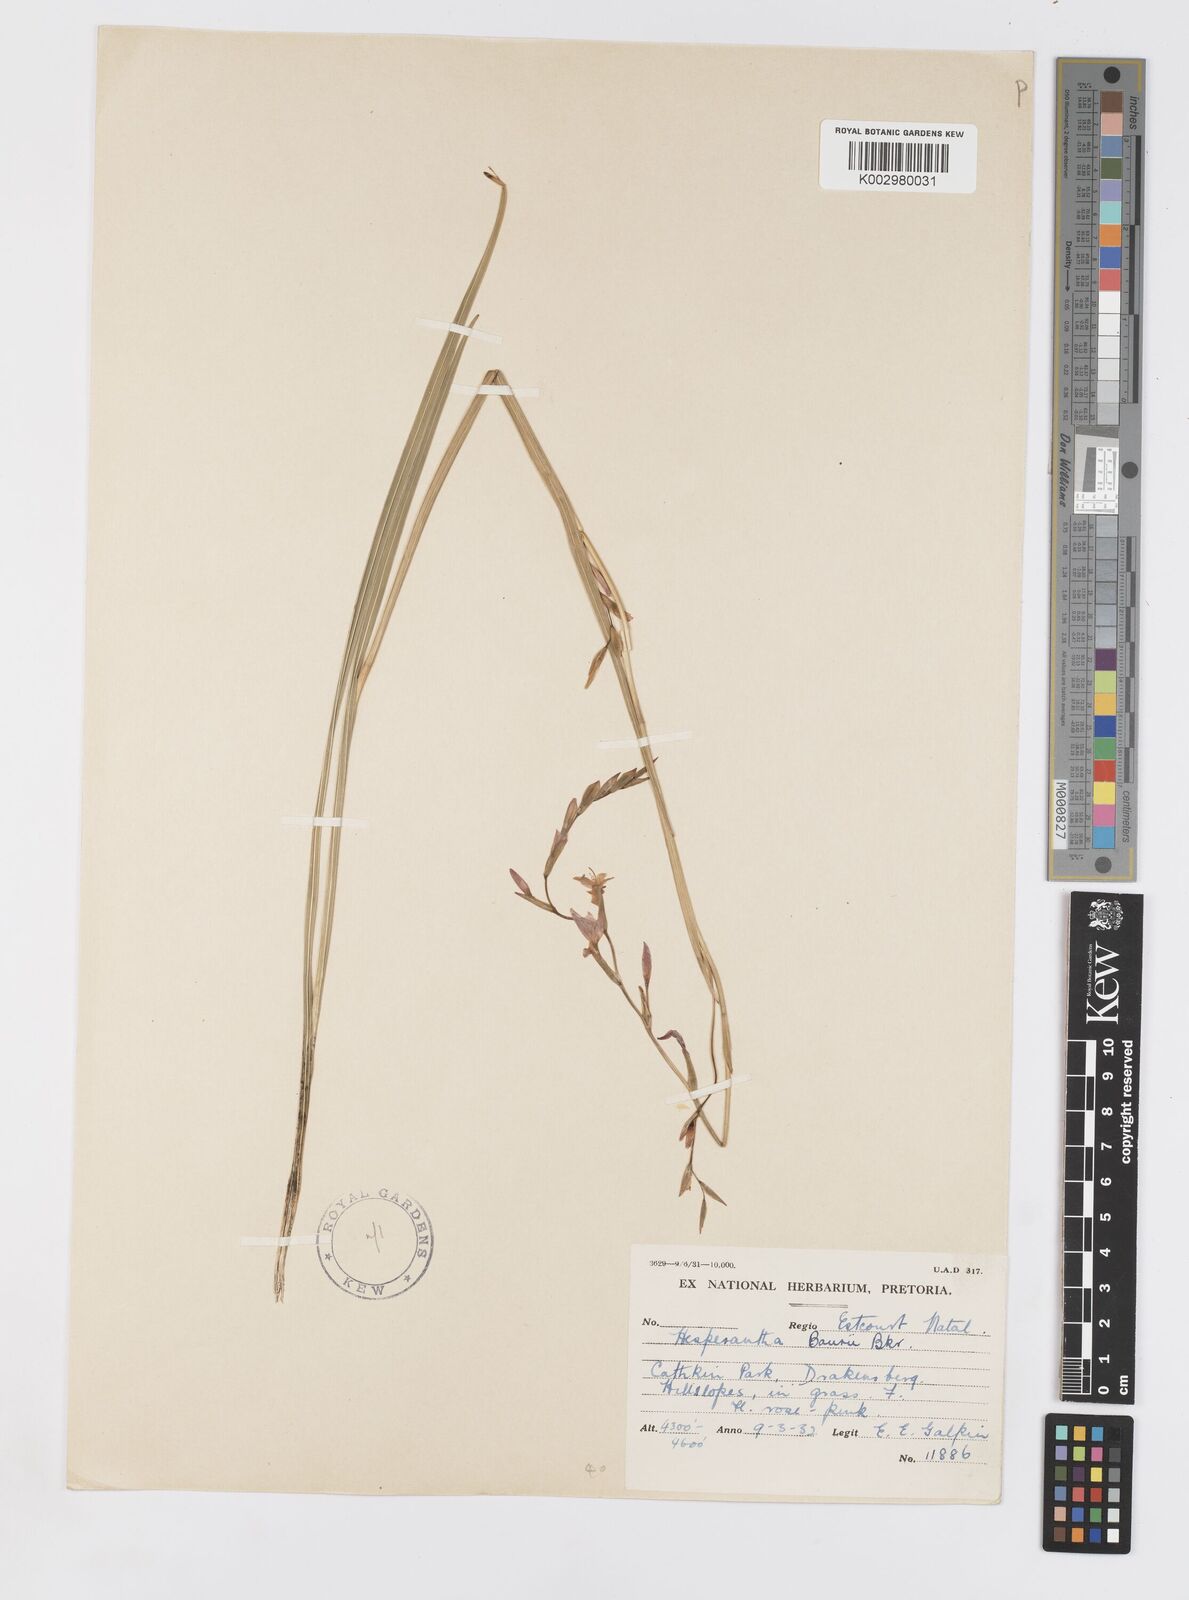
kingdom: Plantae
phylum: Tracheophyta
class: Liliopsida
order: Asparagales
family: Iridaceae
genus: Hesperantha
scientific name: Hesperantha baurii
